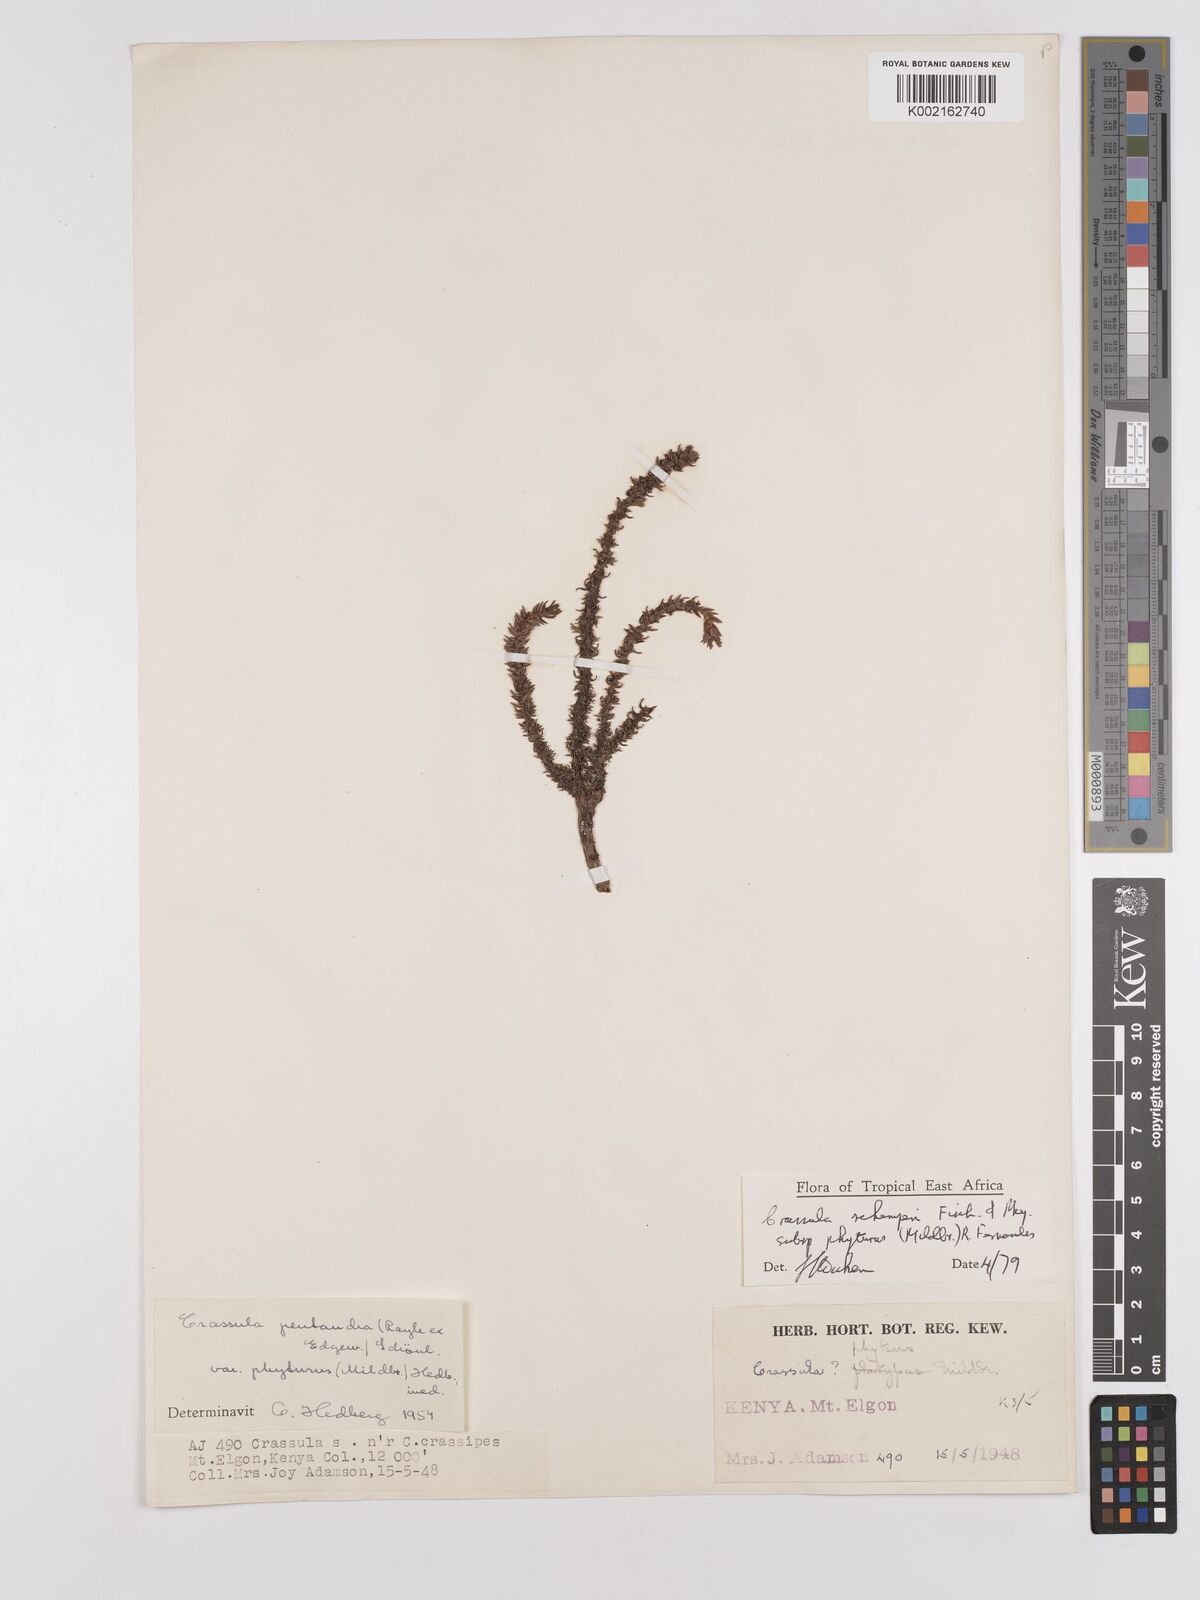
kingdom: Plantae
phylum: Tracheophyta
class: Magnoliopsida
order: Saxifragales
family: Crassulaceae
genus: Crassula
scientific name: Crassula schimperi
